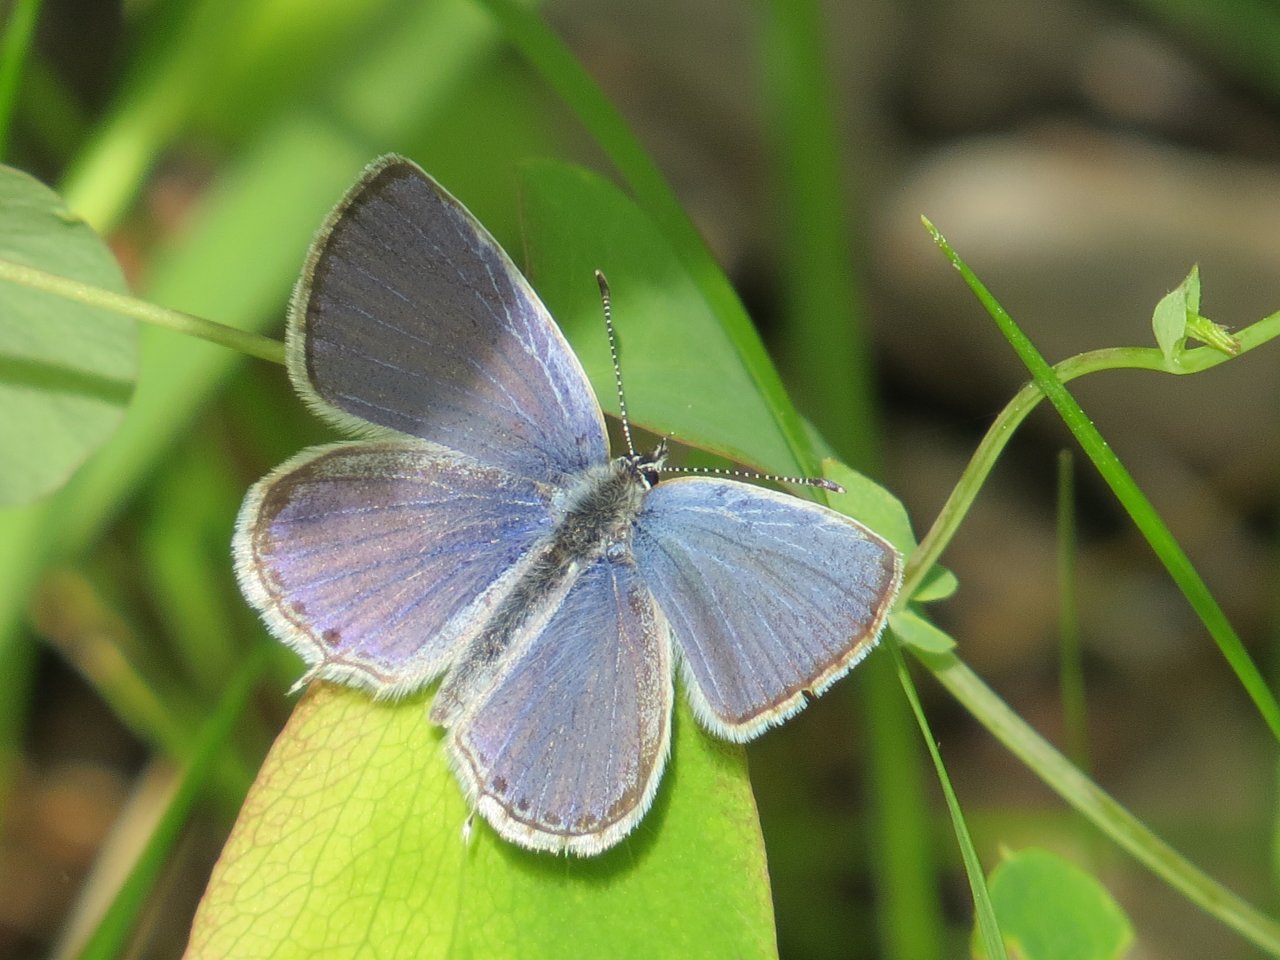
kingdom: Animalia
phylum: Arthropoda
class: Insecta
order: Lepidoptera
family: Lycaenidae
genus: Elkalyce
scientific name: Elkalyce amyntula
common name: Western Tailed-Blue
